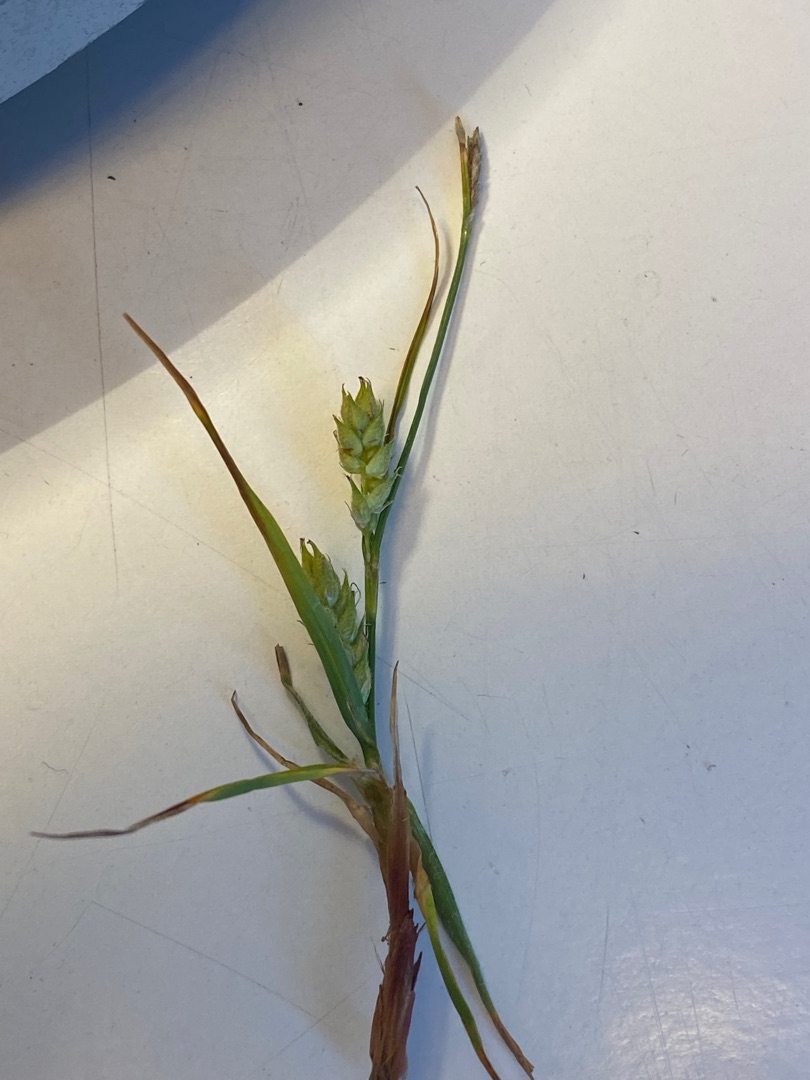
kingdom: Plantae
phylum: Tracheophyta
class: Liliopsida
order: Poales
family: Cyperaceae
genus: Carex
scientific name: Carex hirta
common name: Håret star
